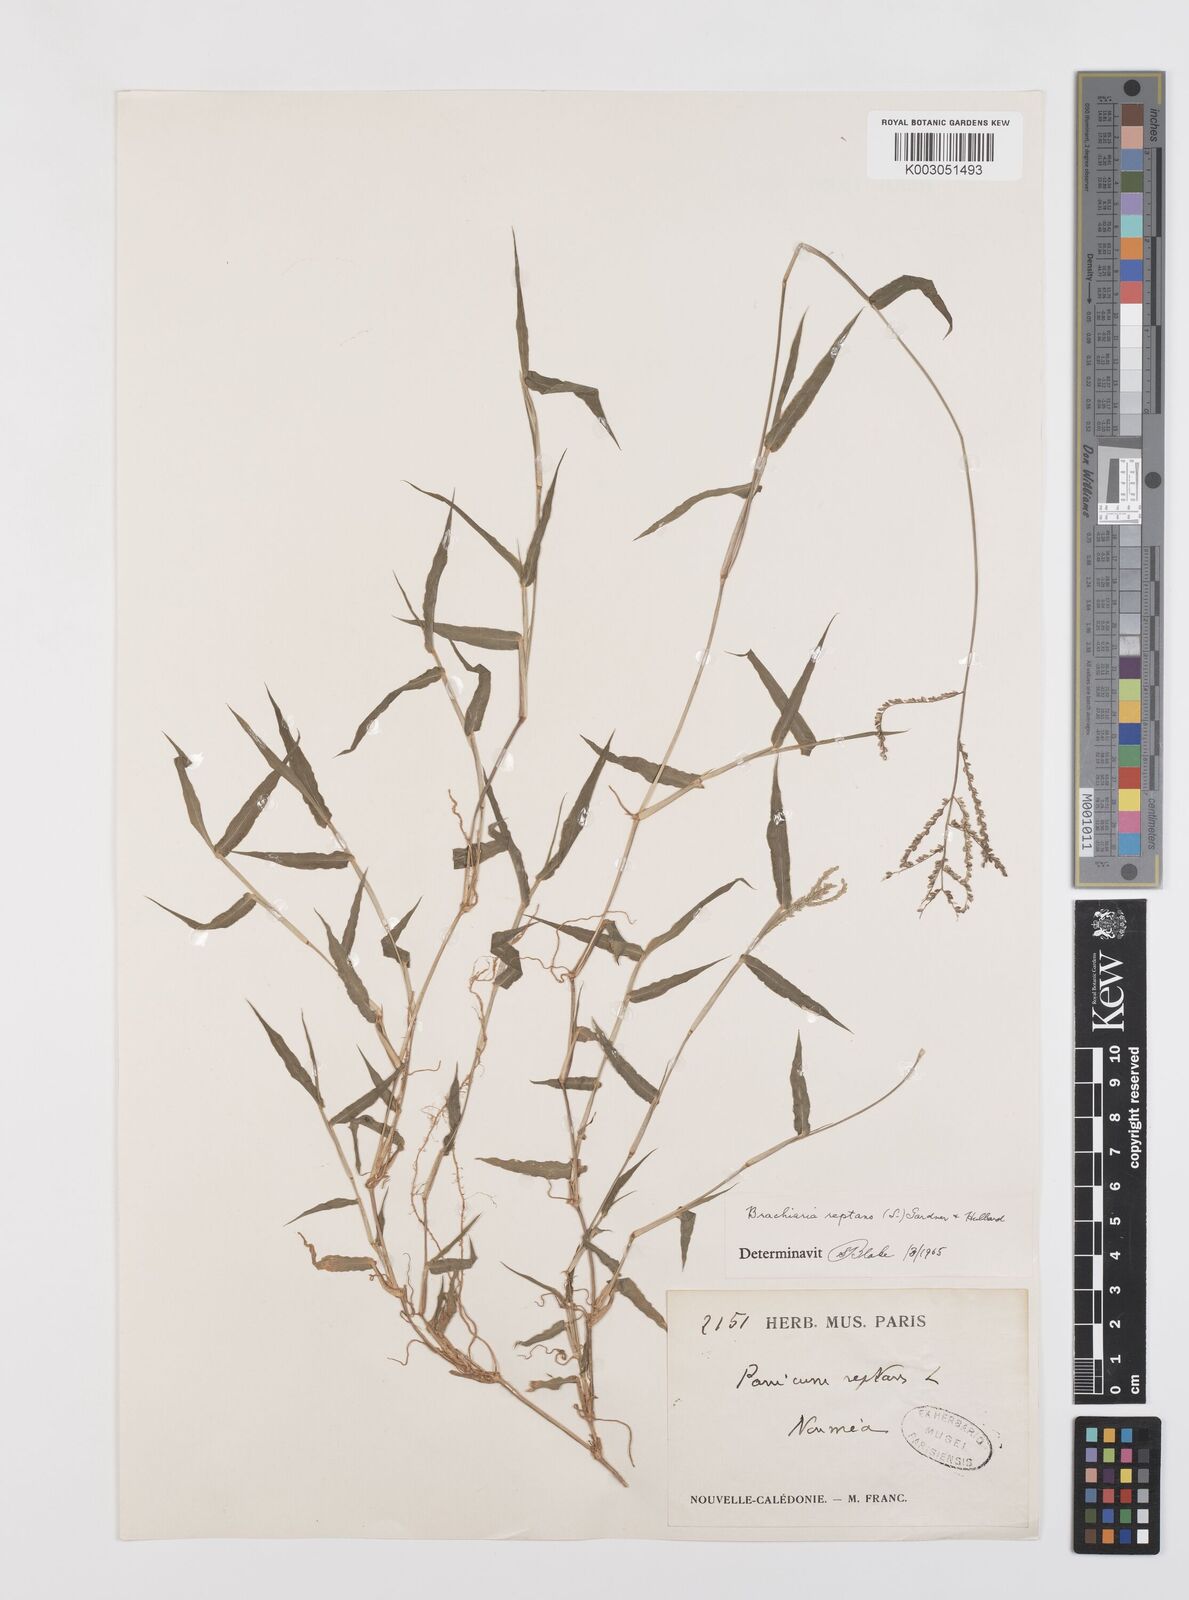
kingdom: Plantae
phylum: Tracheophyta
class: Liliopsida
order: Poales
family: Poaceae
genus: Urochloa
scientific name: Urochloa reptans
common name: Sprawling signalgrass
